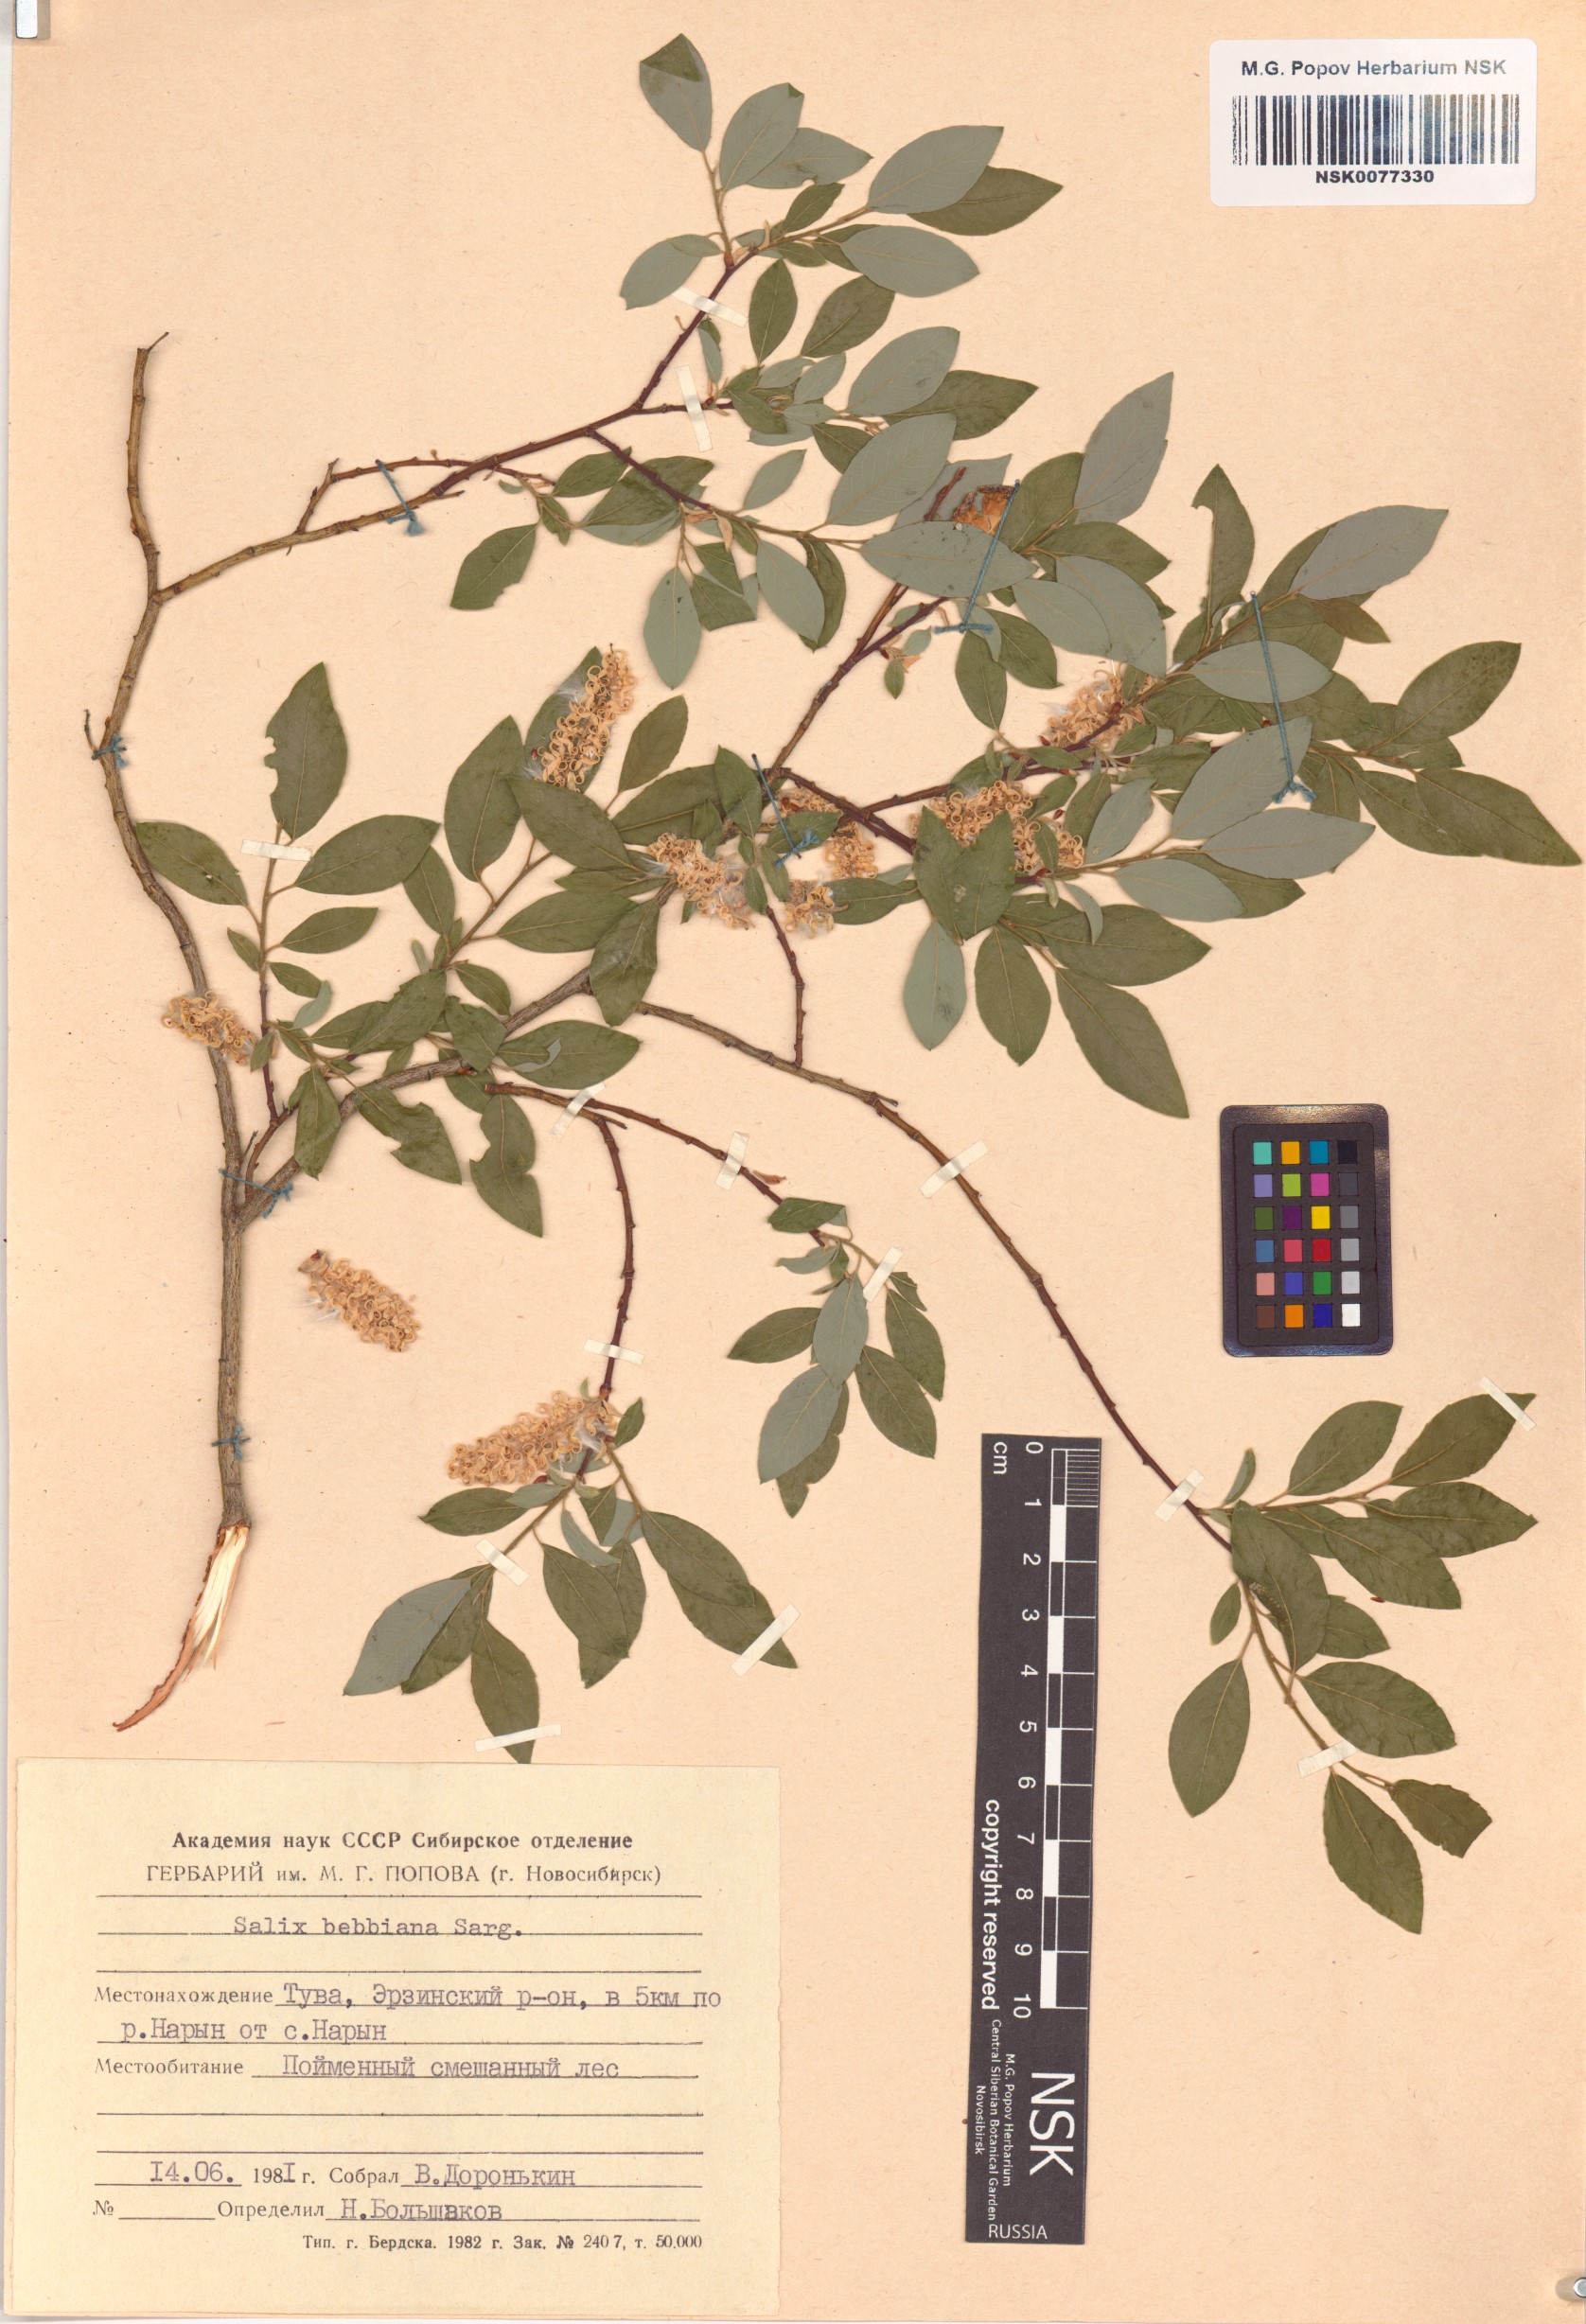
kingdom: Plantae
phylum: Tracheophyta
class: Magnoliopsida
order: Malpighiales
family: Salicaceae
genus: Salix
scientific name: Salix bebbiana
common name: Bebb's willow
